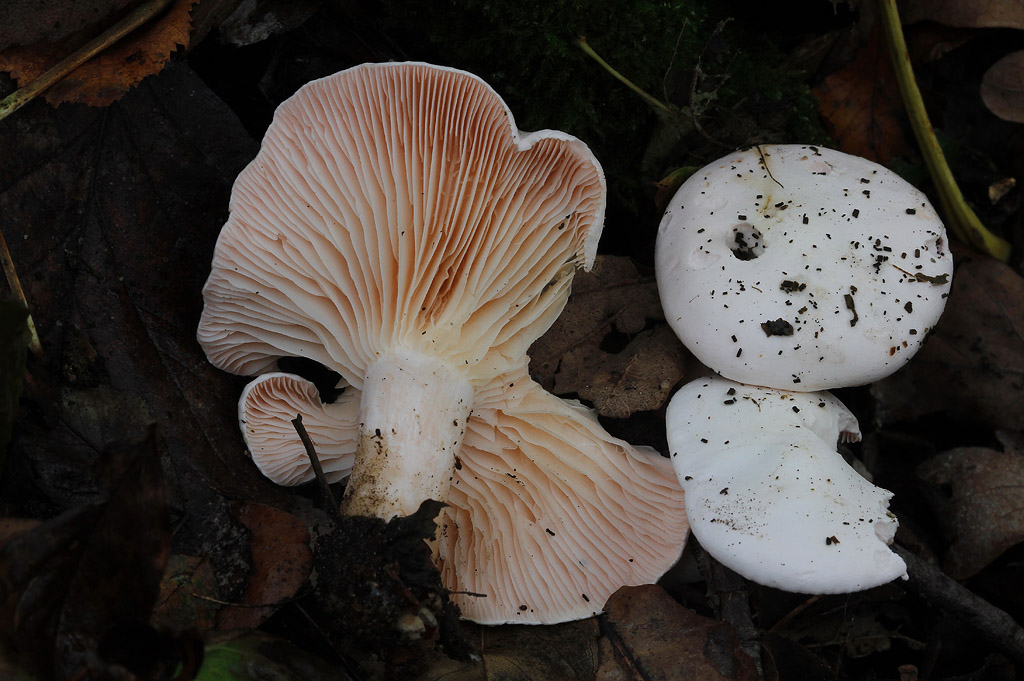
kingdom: Fungi
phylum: Basidiomycota
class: Agaricomycetes
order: Agaricales
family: Tricholomataceae
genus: Pseudoclitopilus
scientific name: Pseudoclitopilus rhodoleucus
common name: rosabladet tragtridderhat
